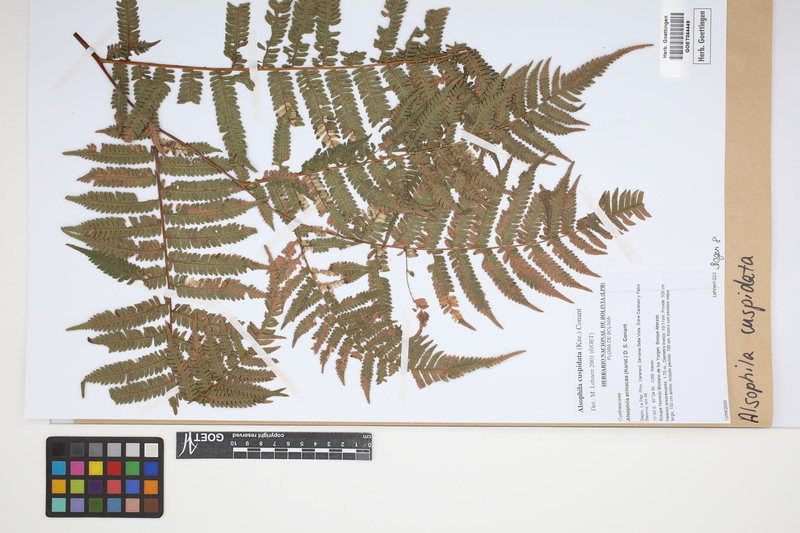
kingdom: Plantae
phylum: Tracheophyta
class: Polypodiopsida
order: Cyatheales
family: Cyatheaceae
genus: Alsophila
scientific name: Alsophila cuspidata
